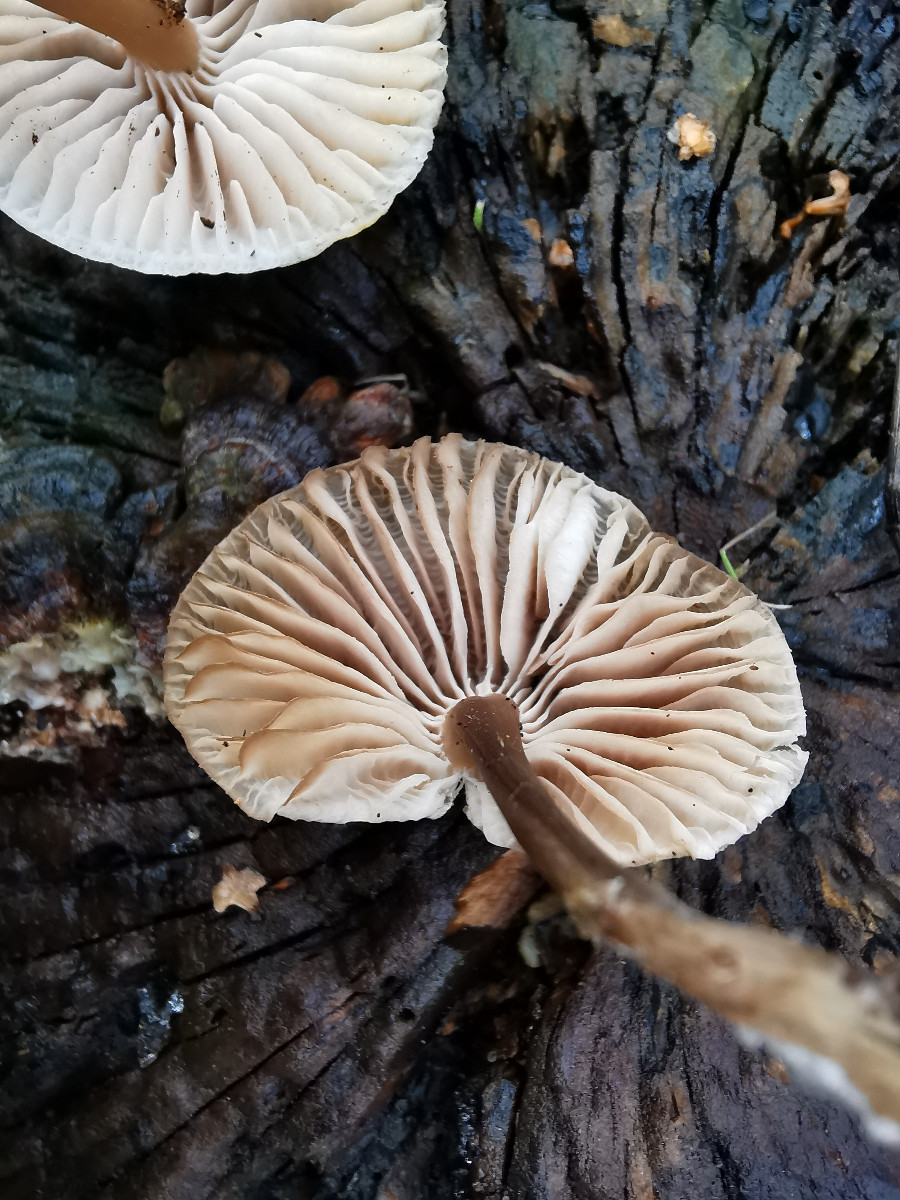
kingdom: Fungi
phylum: Basidiomycota
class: Agaricomycetes
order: Agaricales
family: Mycenaceae
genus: Mycena
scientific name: Mycena galericulata
